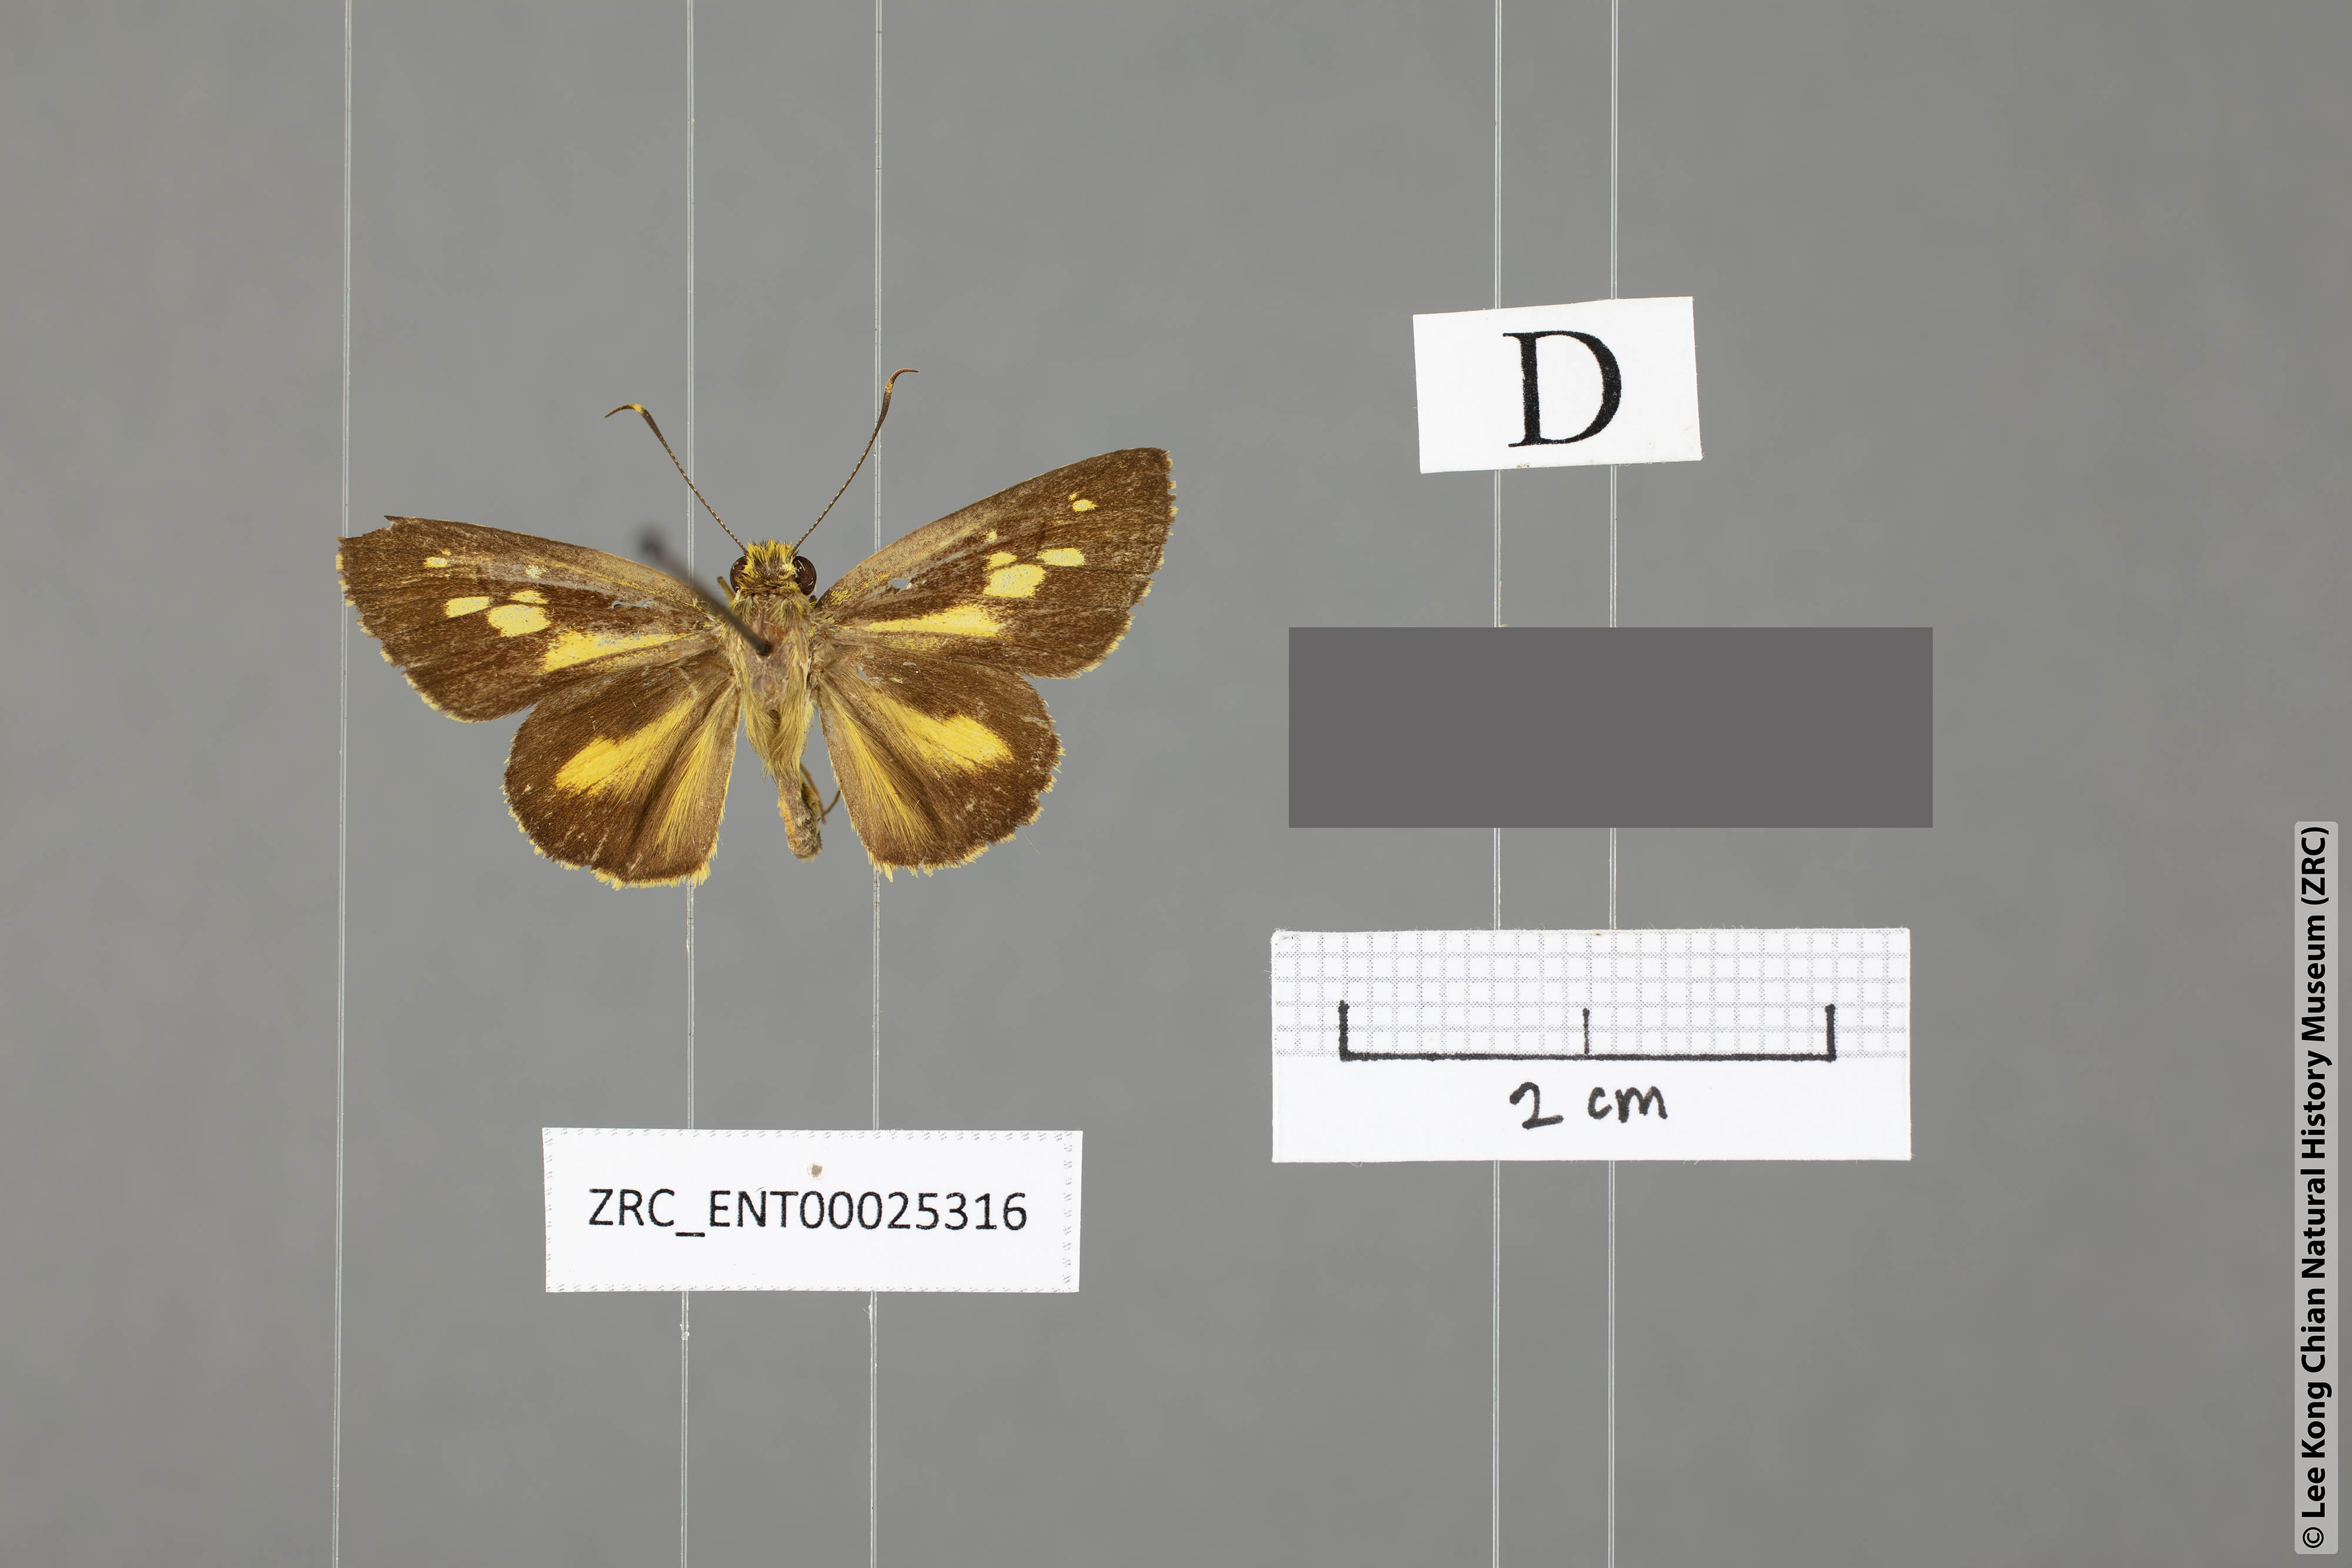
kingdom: Animalia
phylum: Arthropoda
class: Insecta
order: Lepidoptera
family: Hesperiidae
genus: Salanoemia
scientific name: Salanoemia similis
